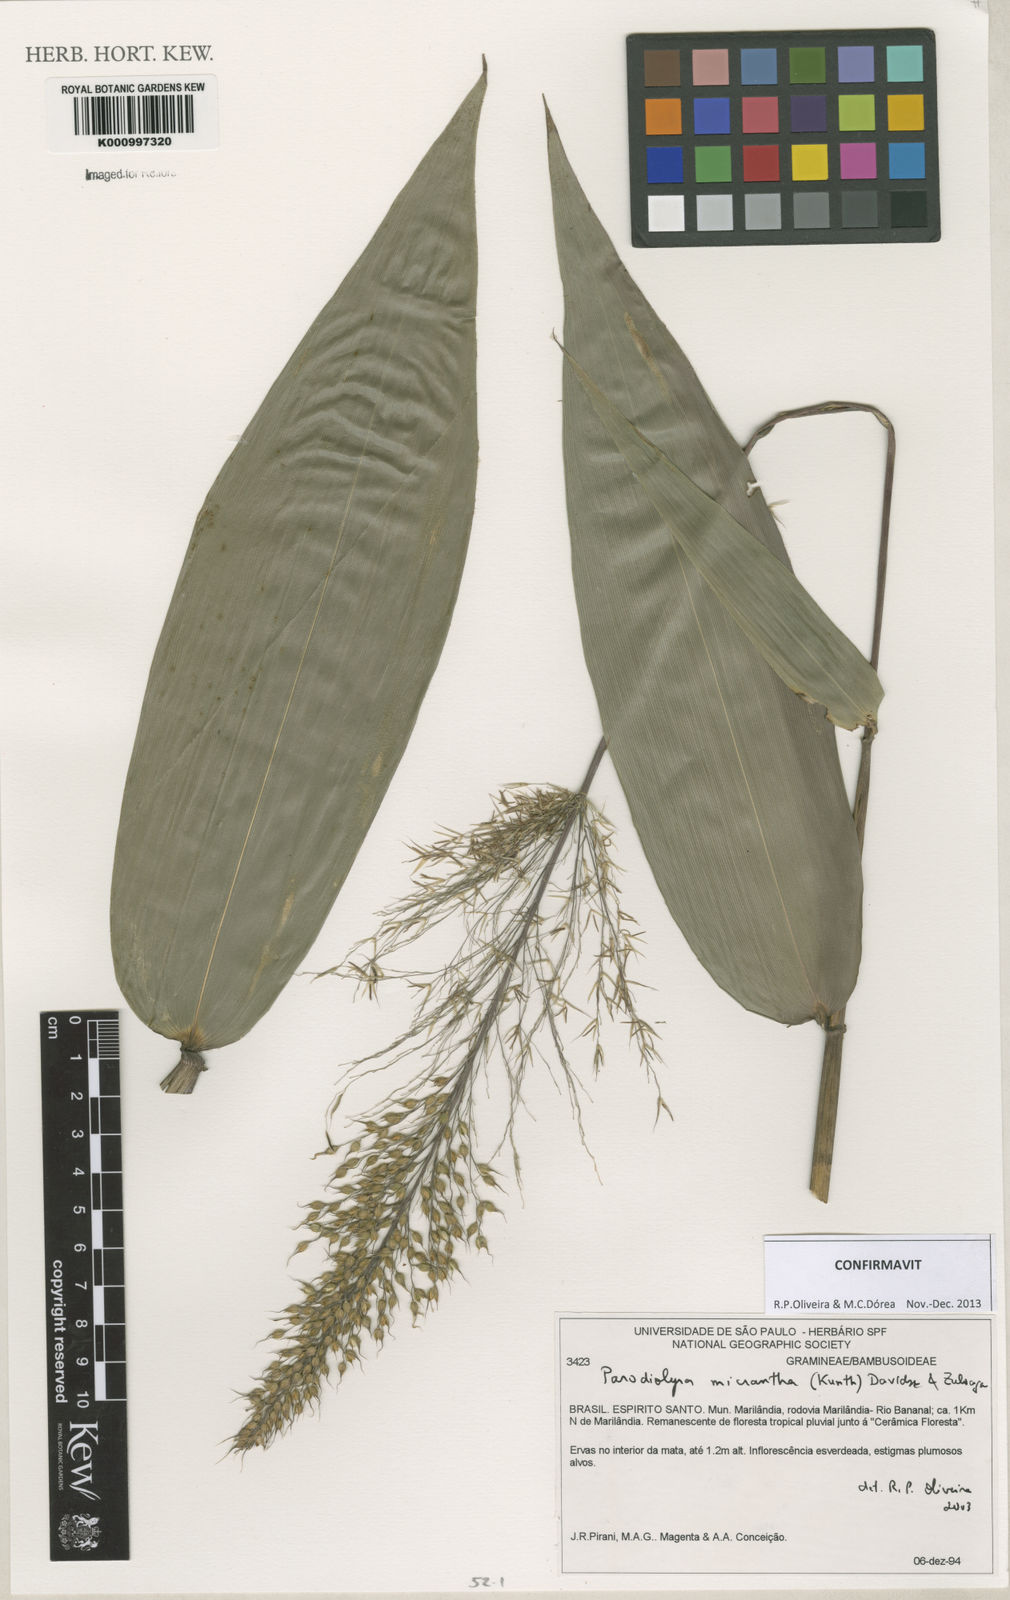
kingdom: Plantae
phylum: Tracheophyta
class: Liliopsida
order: Poales
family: Poaceae
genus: Taquara
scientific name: Taquara micrantha
